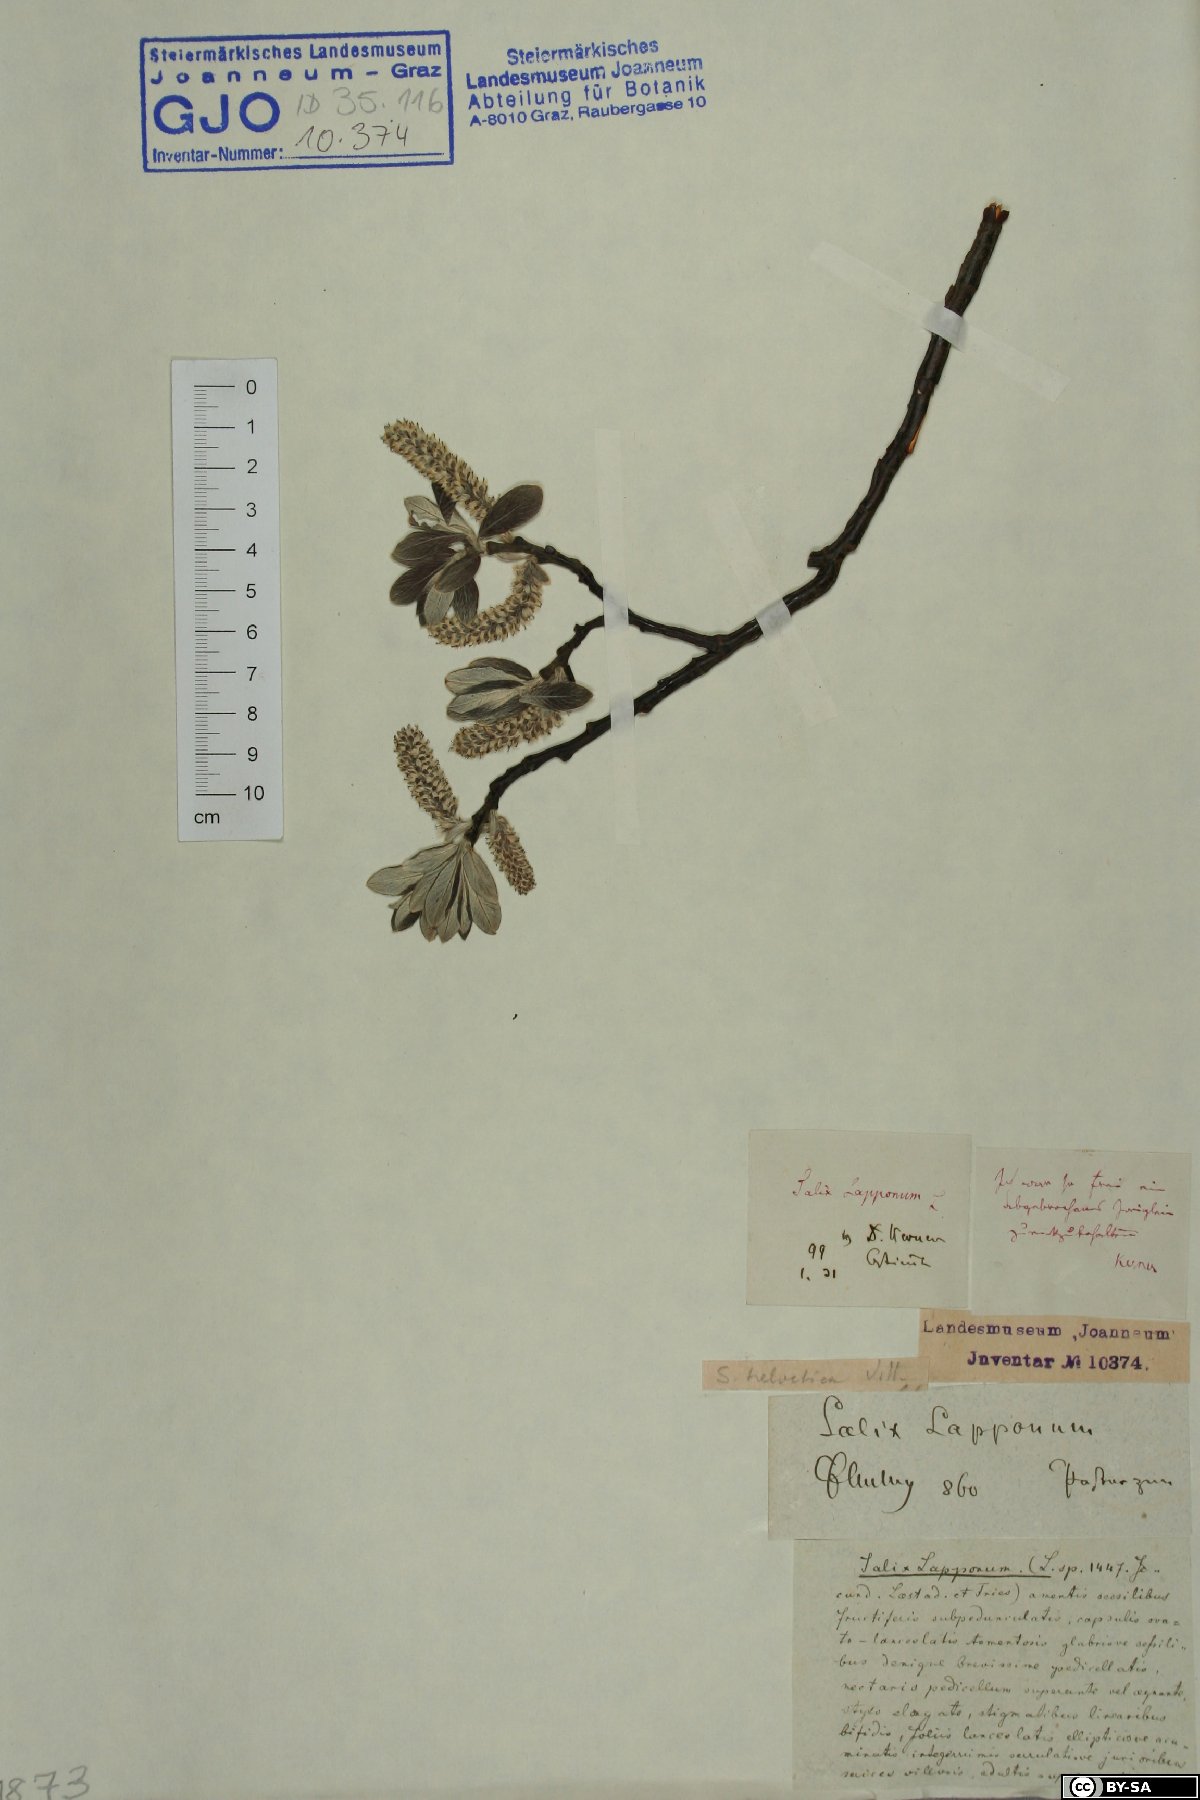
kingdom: Plantae
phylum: Tracheophyta
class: Magnoliopsida
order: Malpighiales
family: Salicaceae
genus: Salix
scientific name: Salix helvetica
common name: Swiss willow
